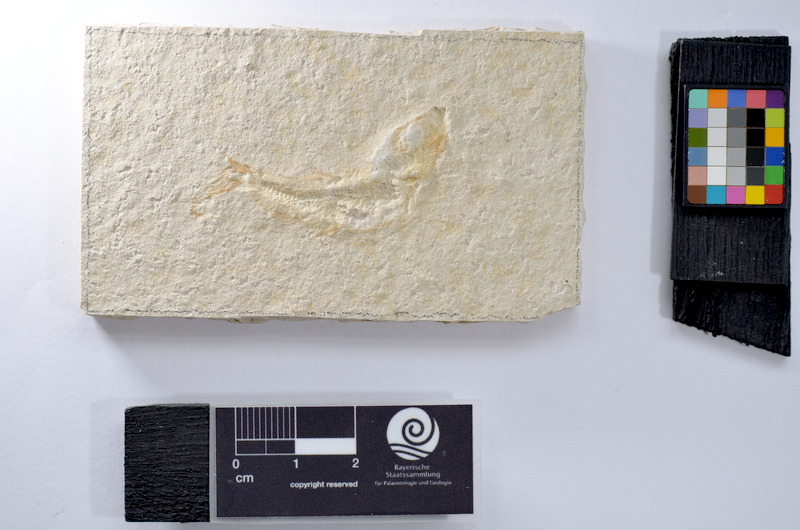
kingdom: Animalia
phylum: Chordata
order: Salmoniformes
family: Orthogonikleithridae
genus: Leptolepides
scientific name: Leptolepides
